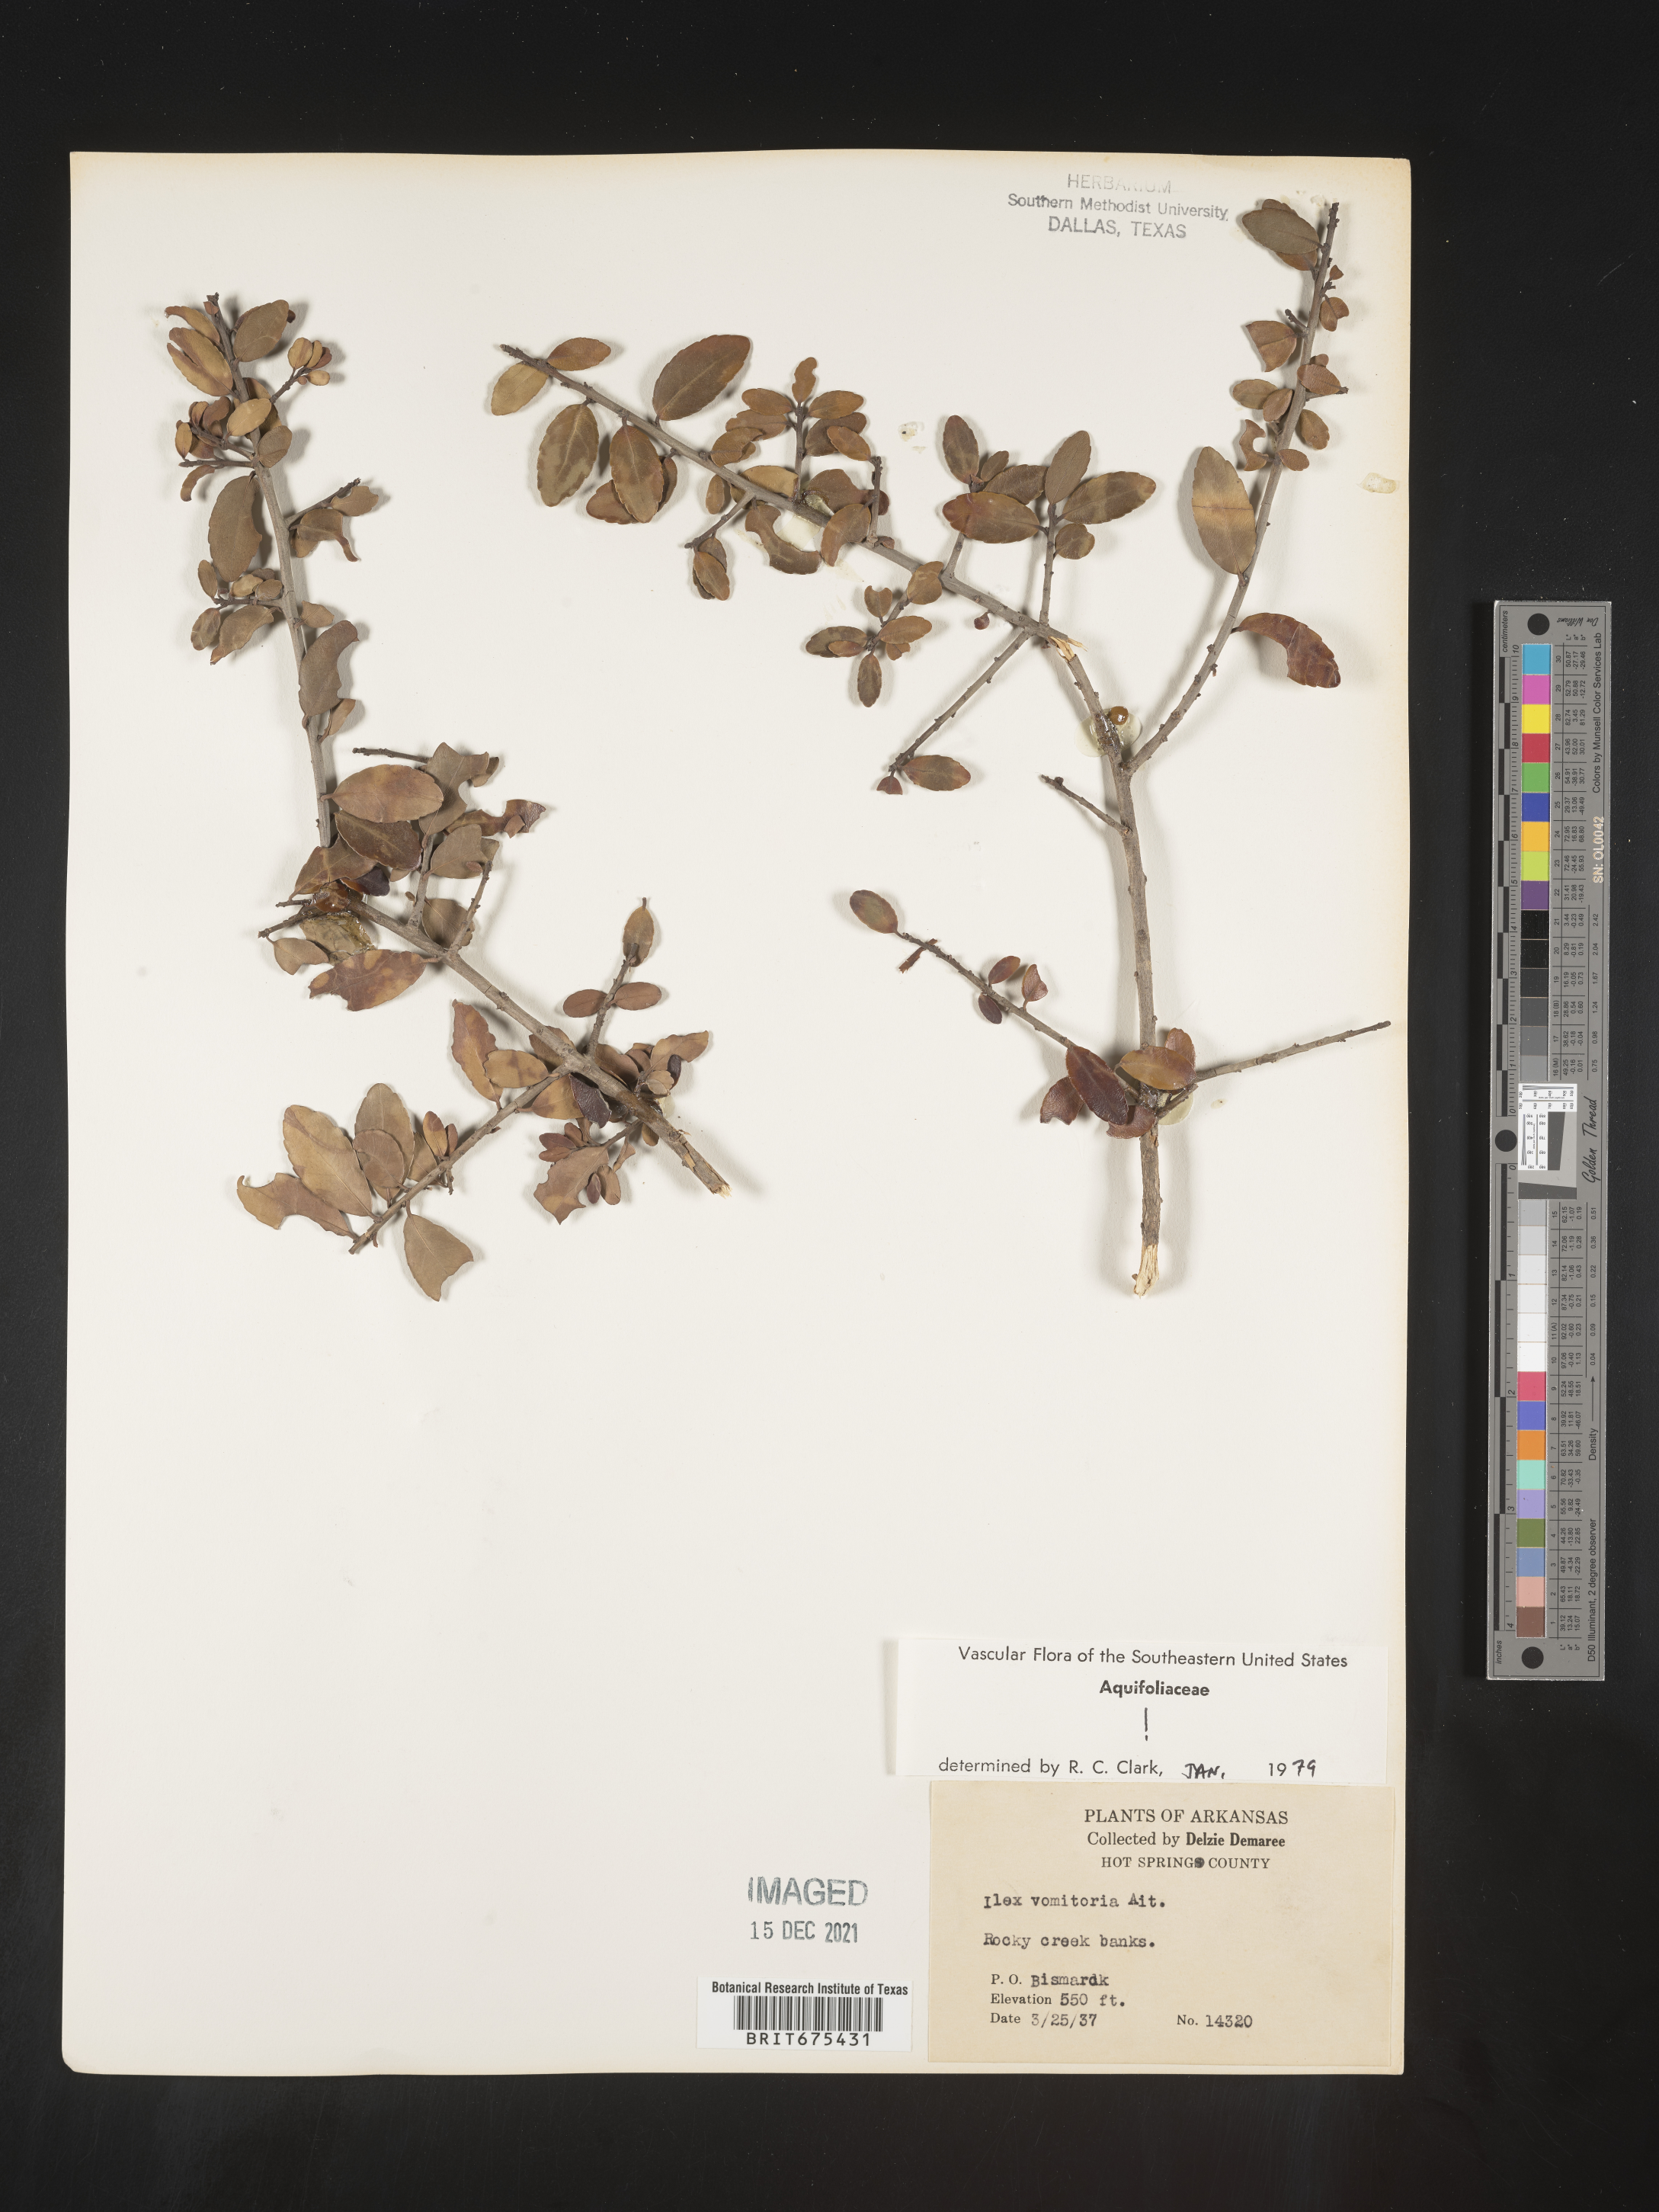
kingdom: Plantae
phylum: Tracheophyta
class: Magnoliopsida
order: Aquifoliales
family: Aquifoliaceae
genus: Ilex
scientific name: Ilex vomitoria
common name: Yaupon holly
